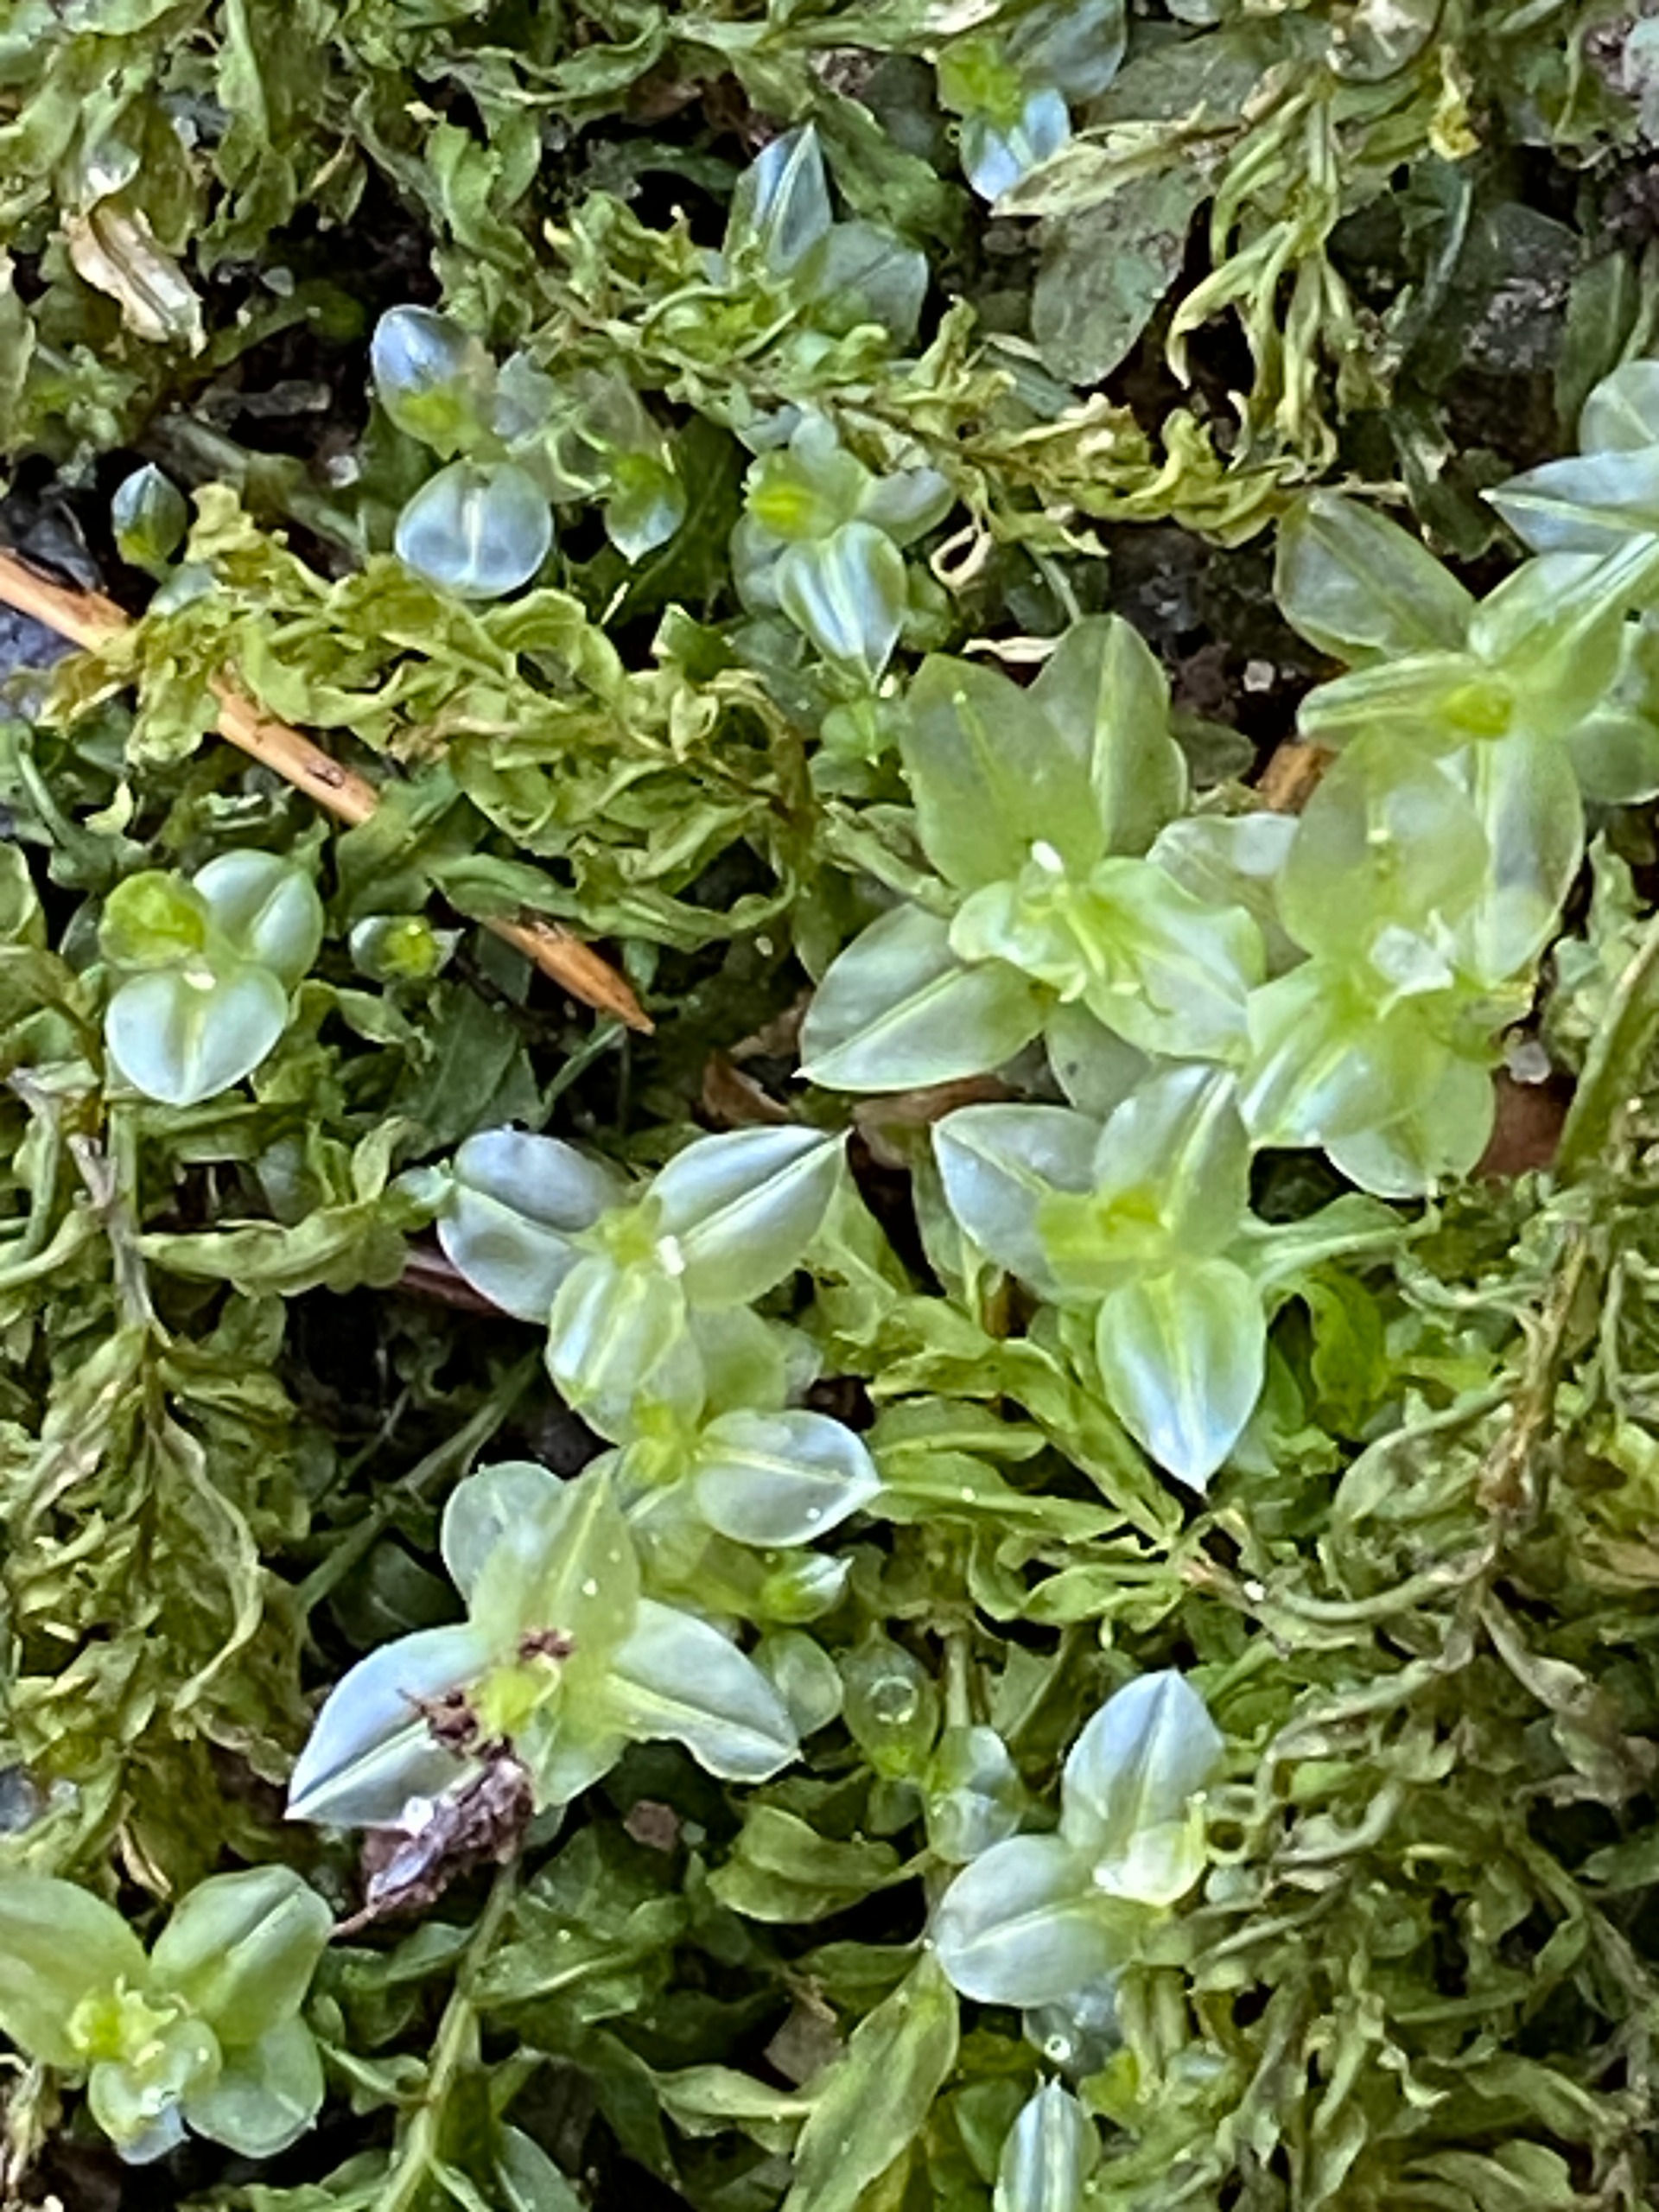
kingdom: Plantae
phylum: Bryophyta
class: Bryopsida
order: Bryales
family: Mniaceae
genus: Plagiomnium
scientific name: Plagiomnium undulatum
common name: Bølget krybstjerne
